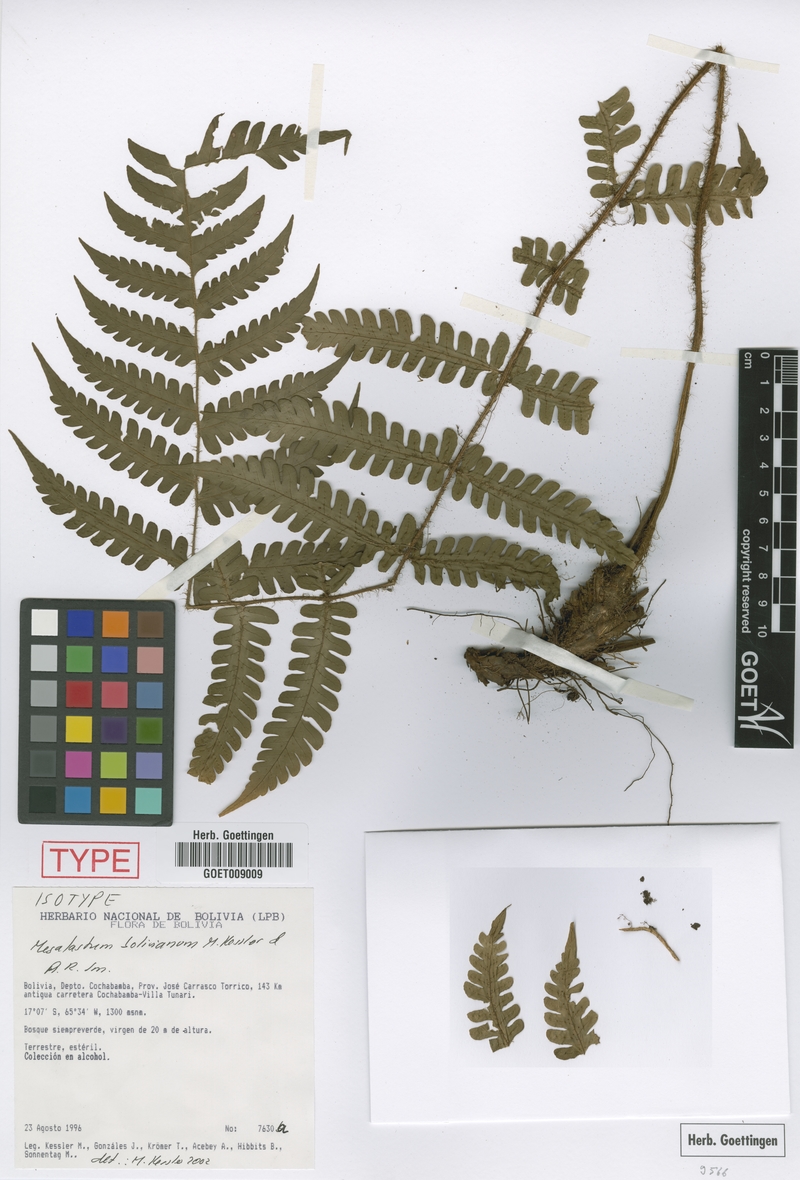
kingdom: Plantae
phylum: Tracheophyta
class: Polypodiopsida
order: Polypodiales
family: Dryopteridaceae
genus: Megalastrum
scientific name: Megalastrum bolivianum
